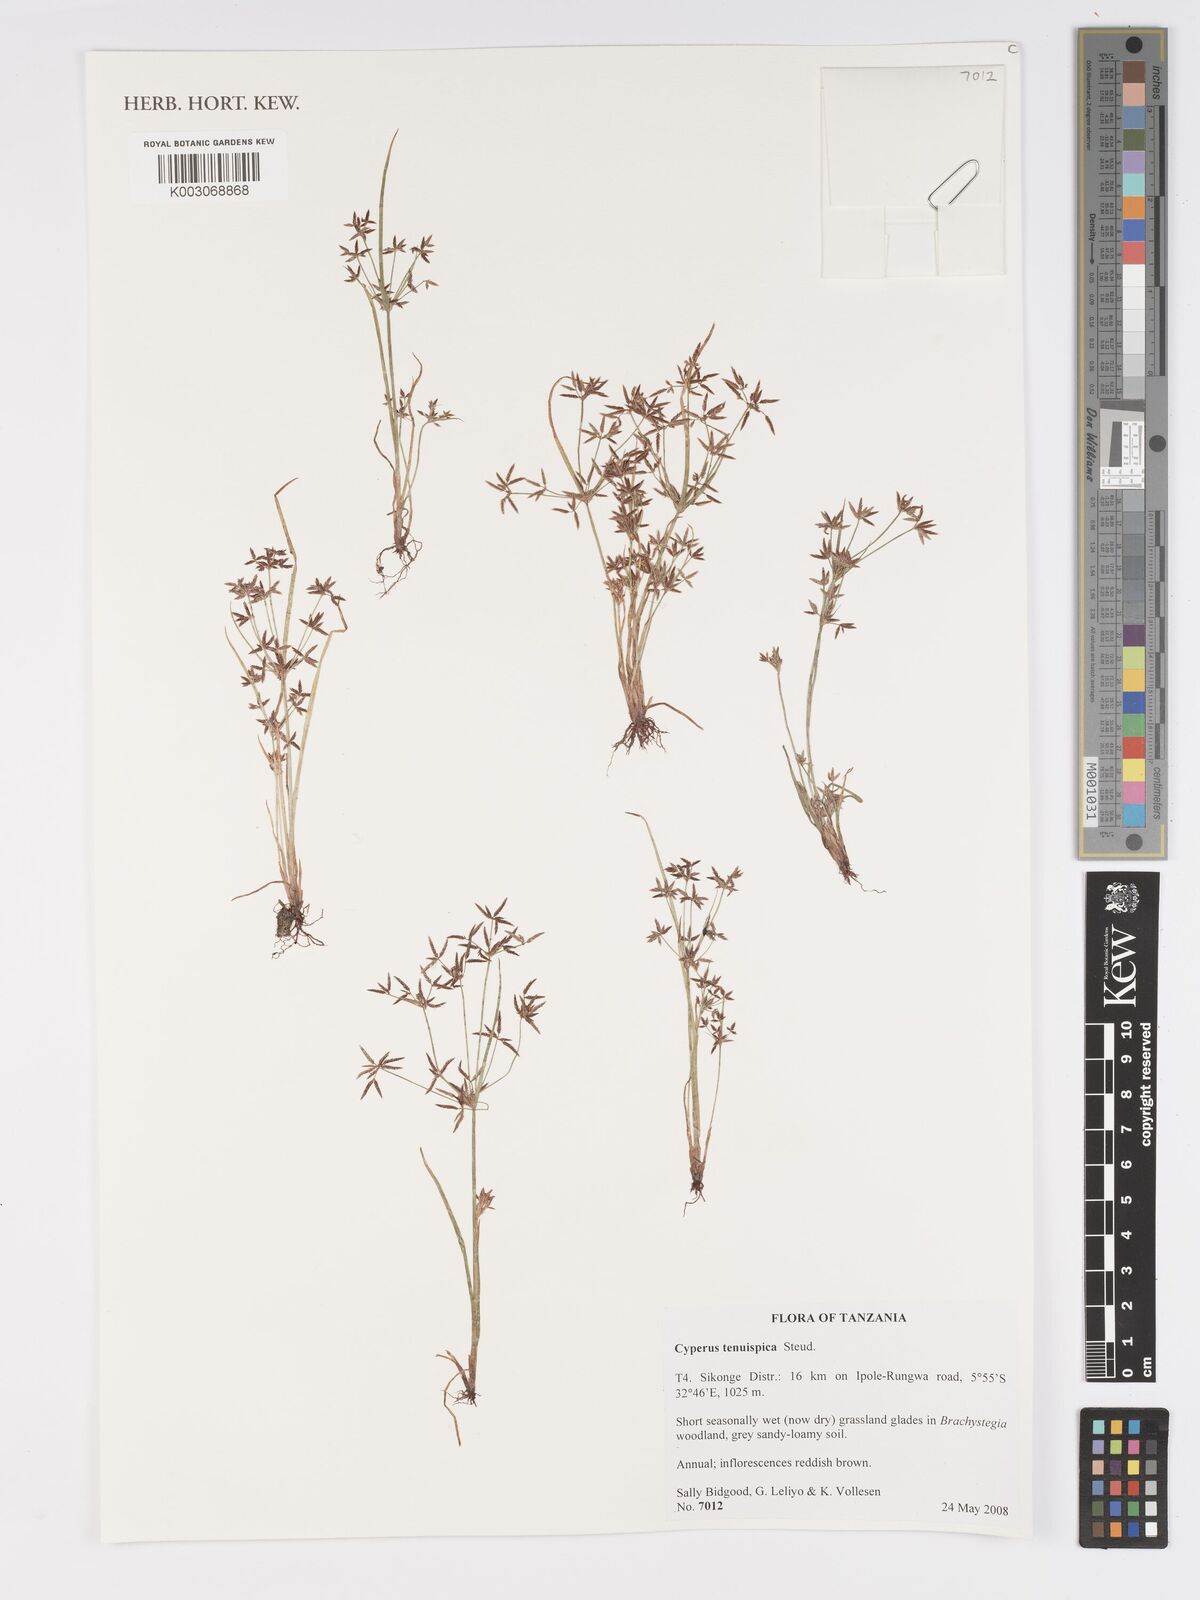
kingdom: Plantae
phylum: Tracheophyta
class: Liliopsida
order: Poales
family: Cyperaceae
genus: Cyperus
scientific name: Cyperus tenuispica
